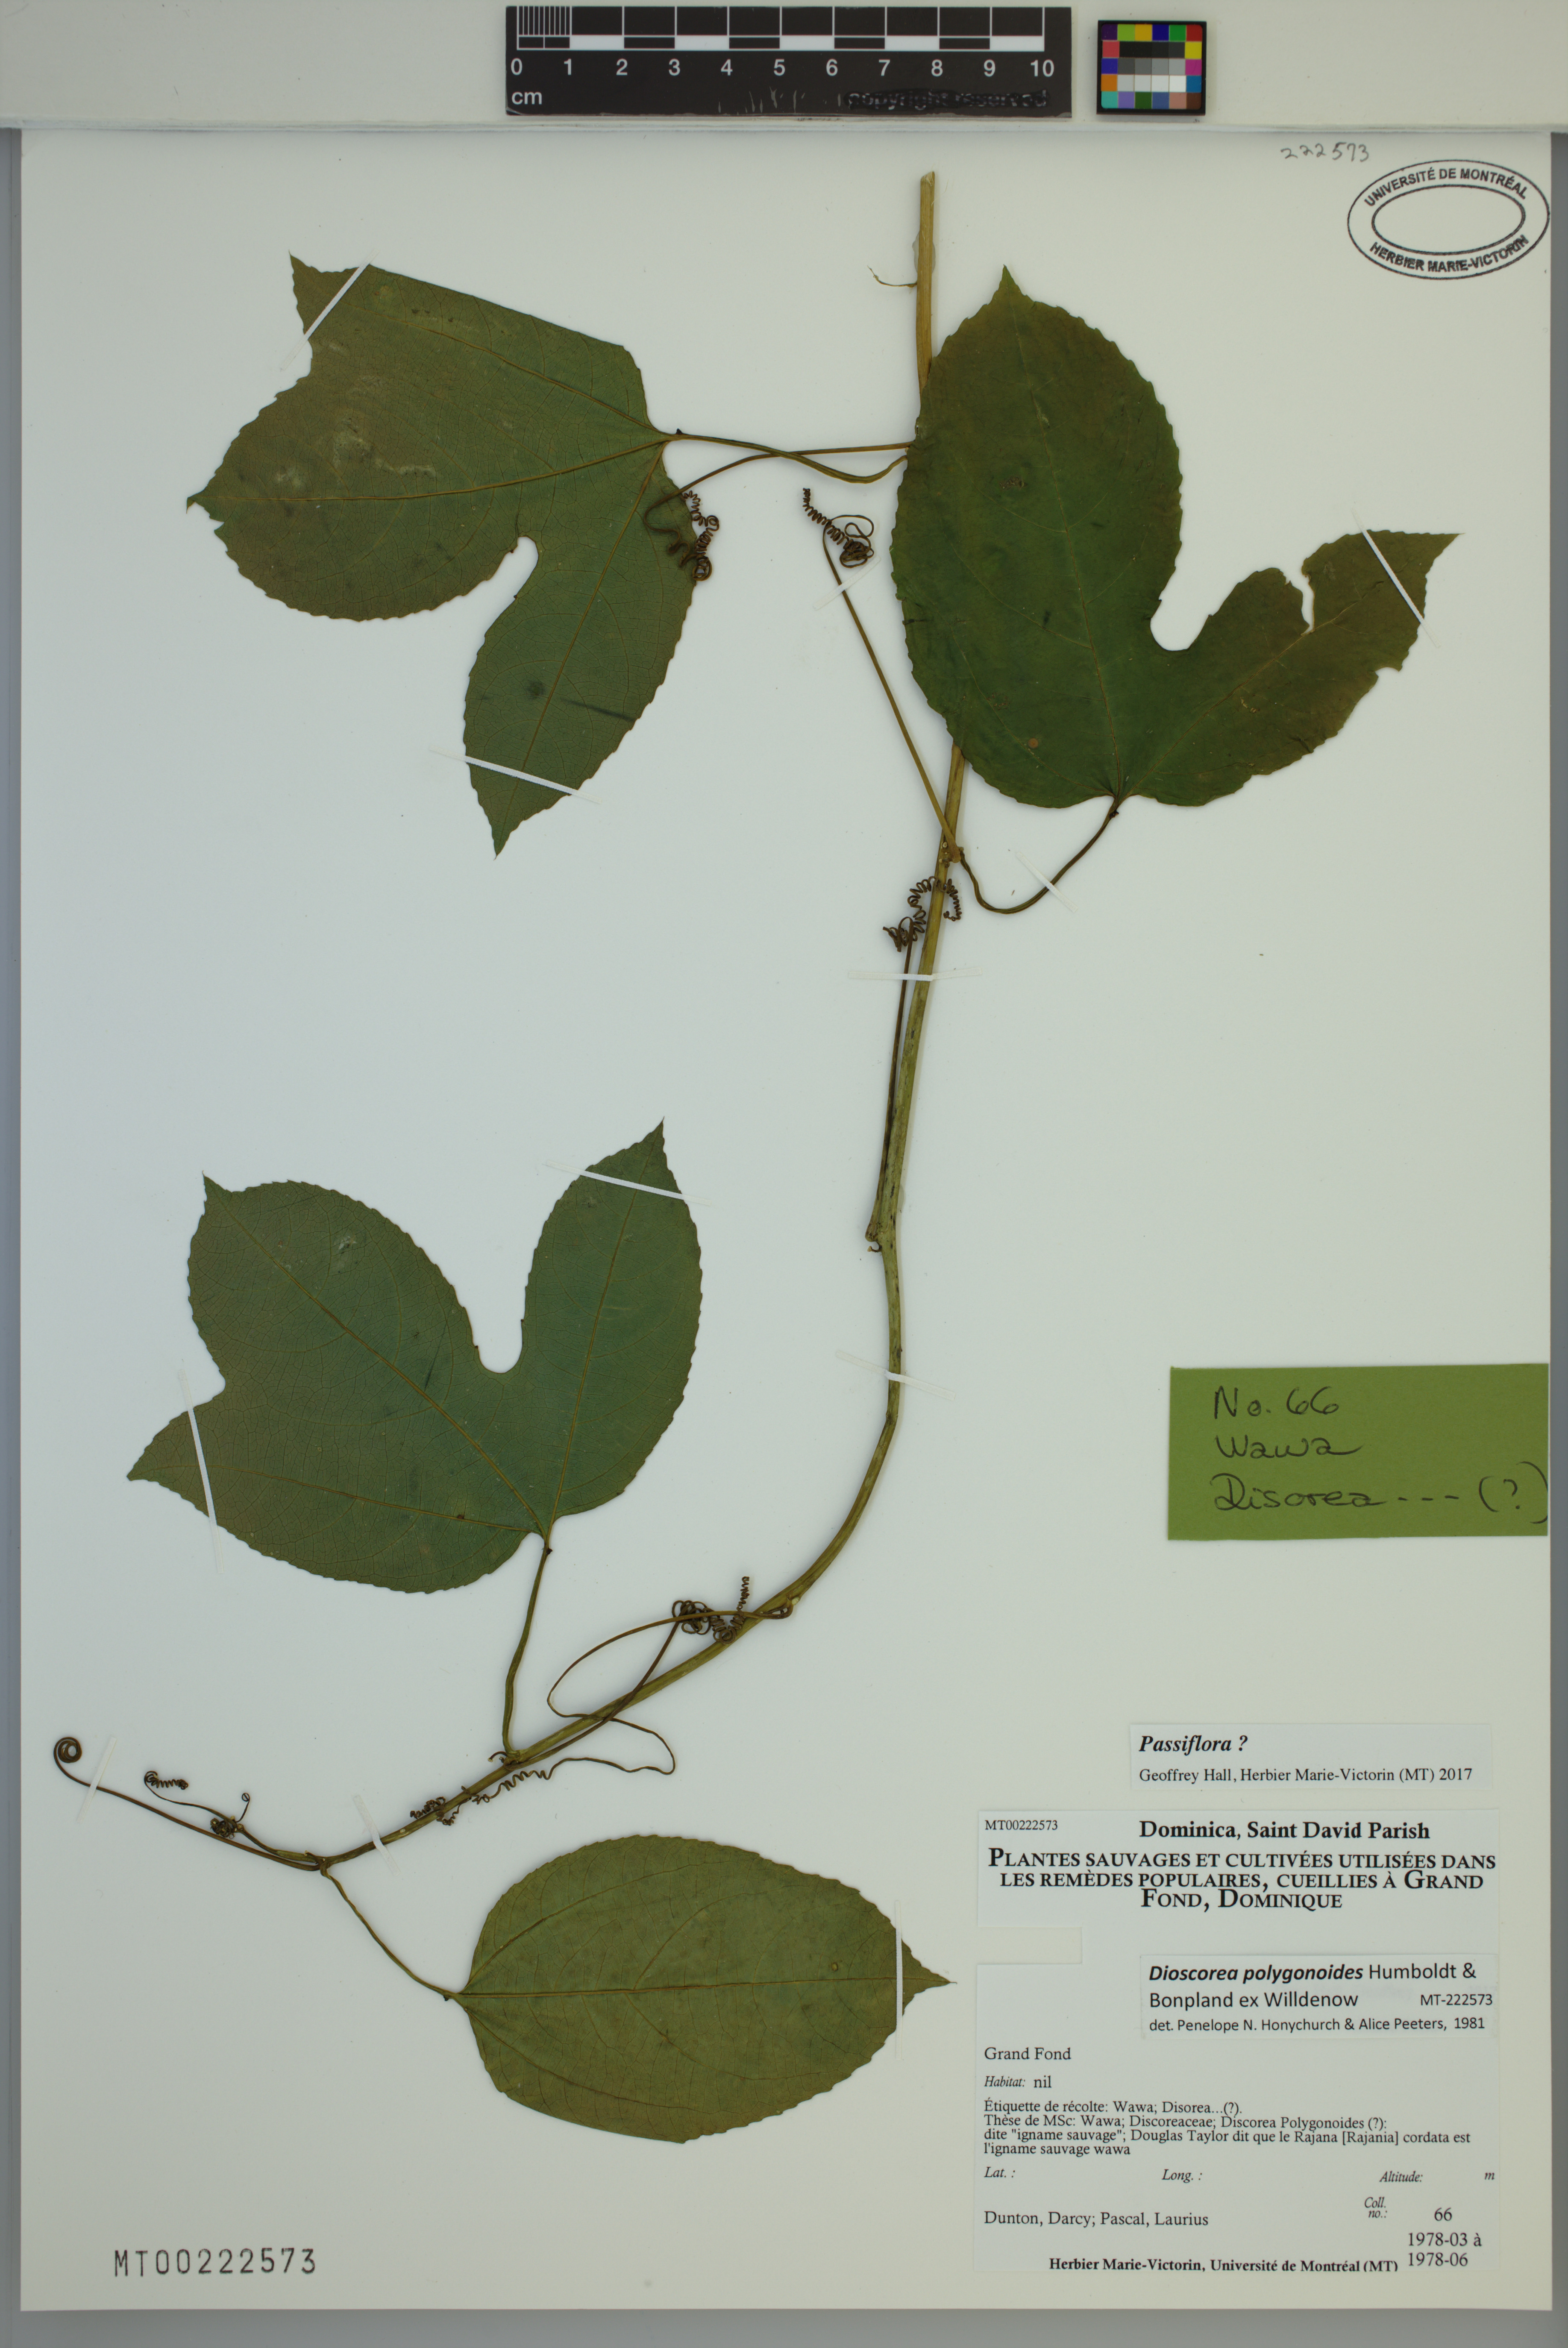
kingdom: Plantae
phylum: Tracheophyta
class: Magnoliopsida
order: Malpighiales
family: Passifloraceae
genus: Passiflora
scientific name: Passiflora
